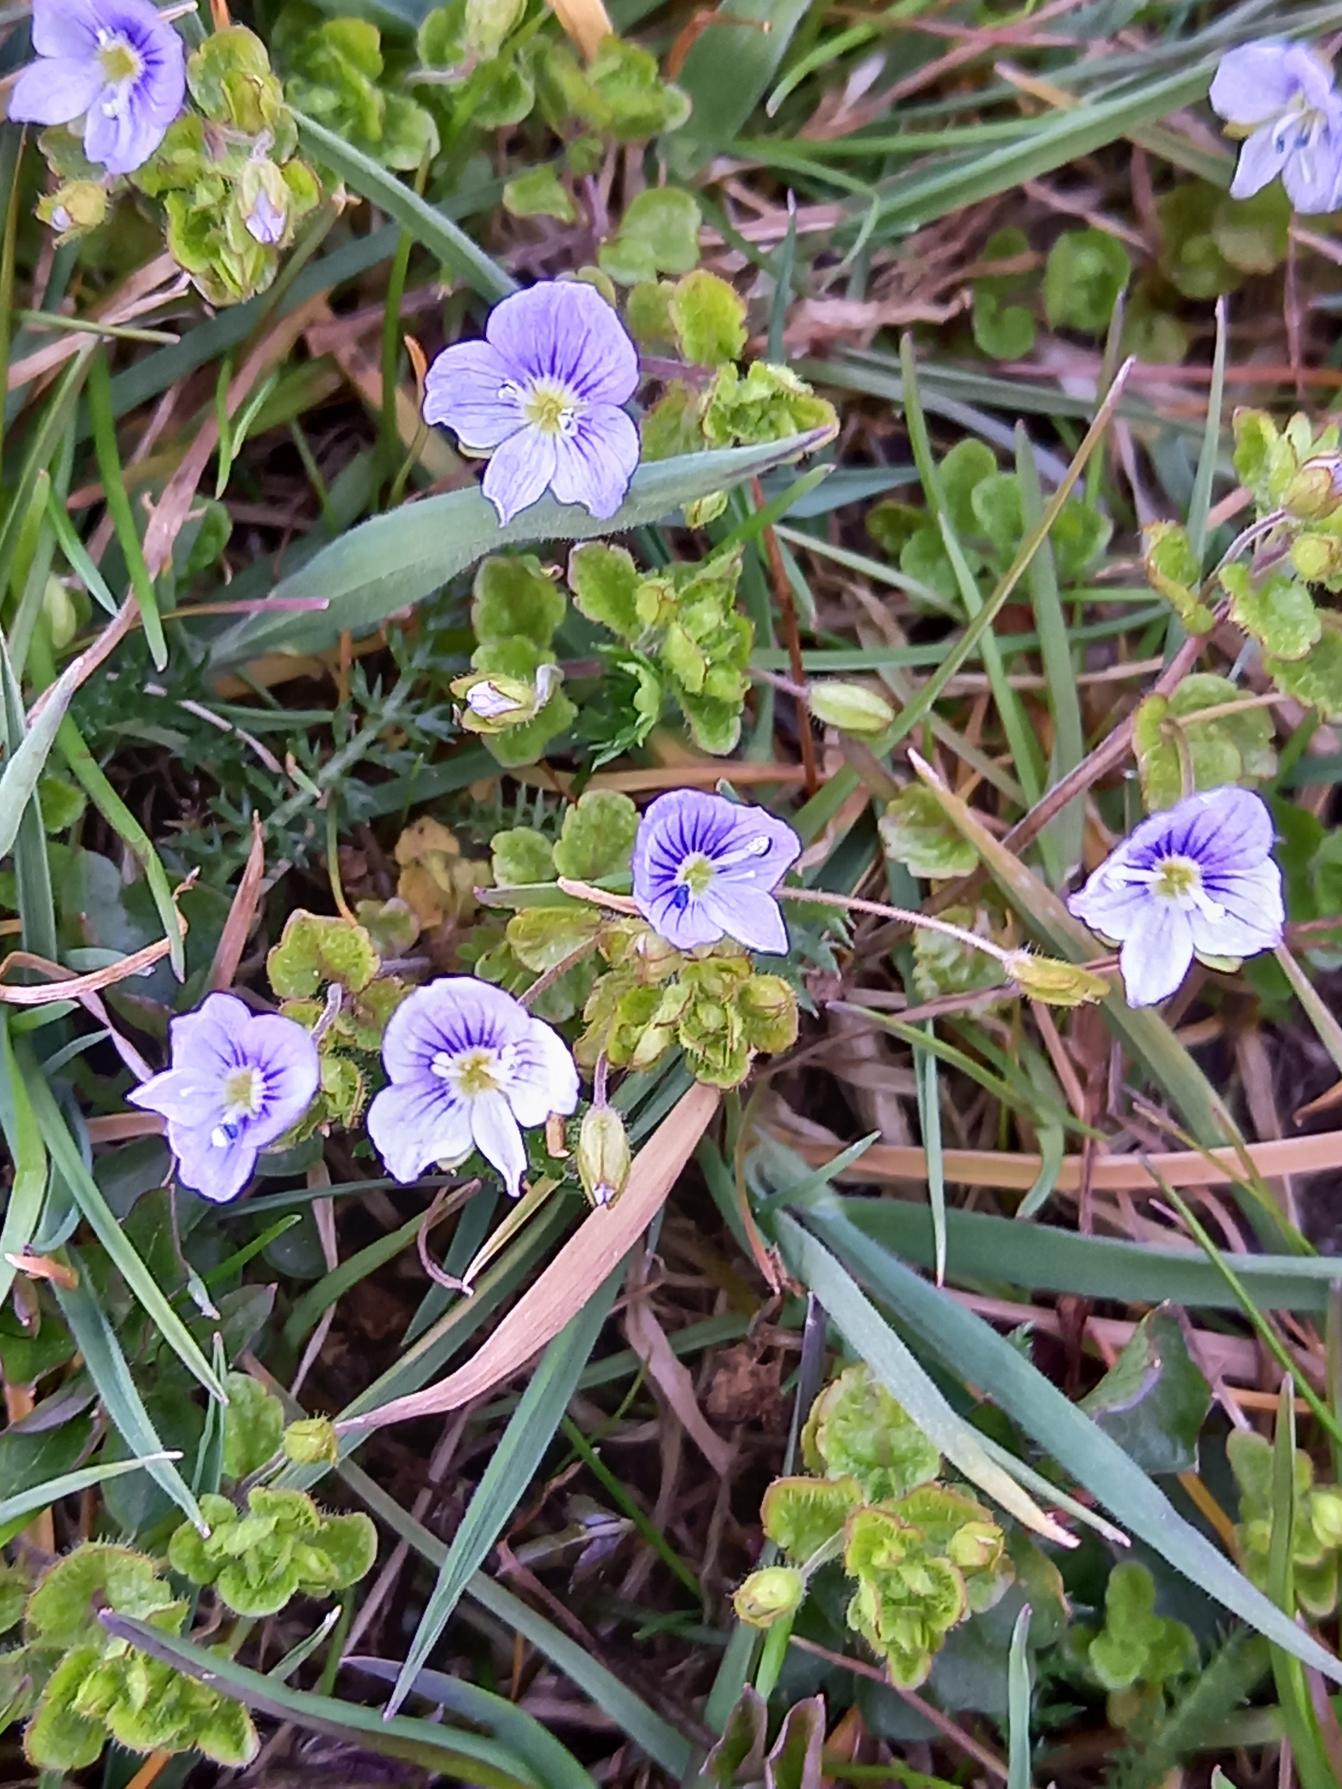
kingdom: Plantae
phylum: Tracheophyta
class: Magnoliopsida
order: Lamiales
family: Plantaginaceae
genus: Veronica
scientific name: Veronica filiformis
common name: Tråd-ærenpris
